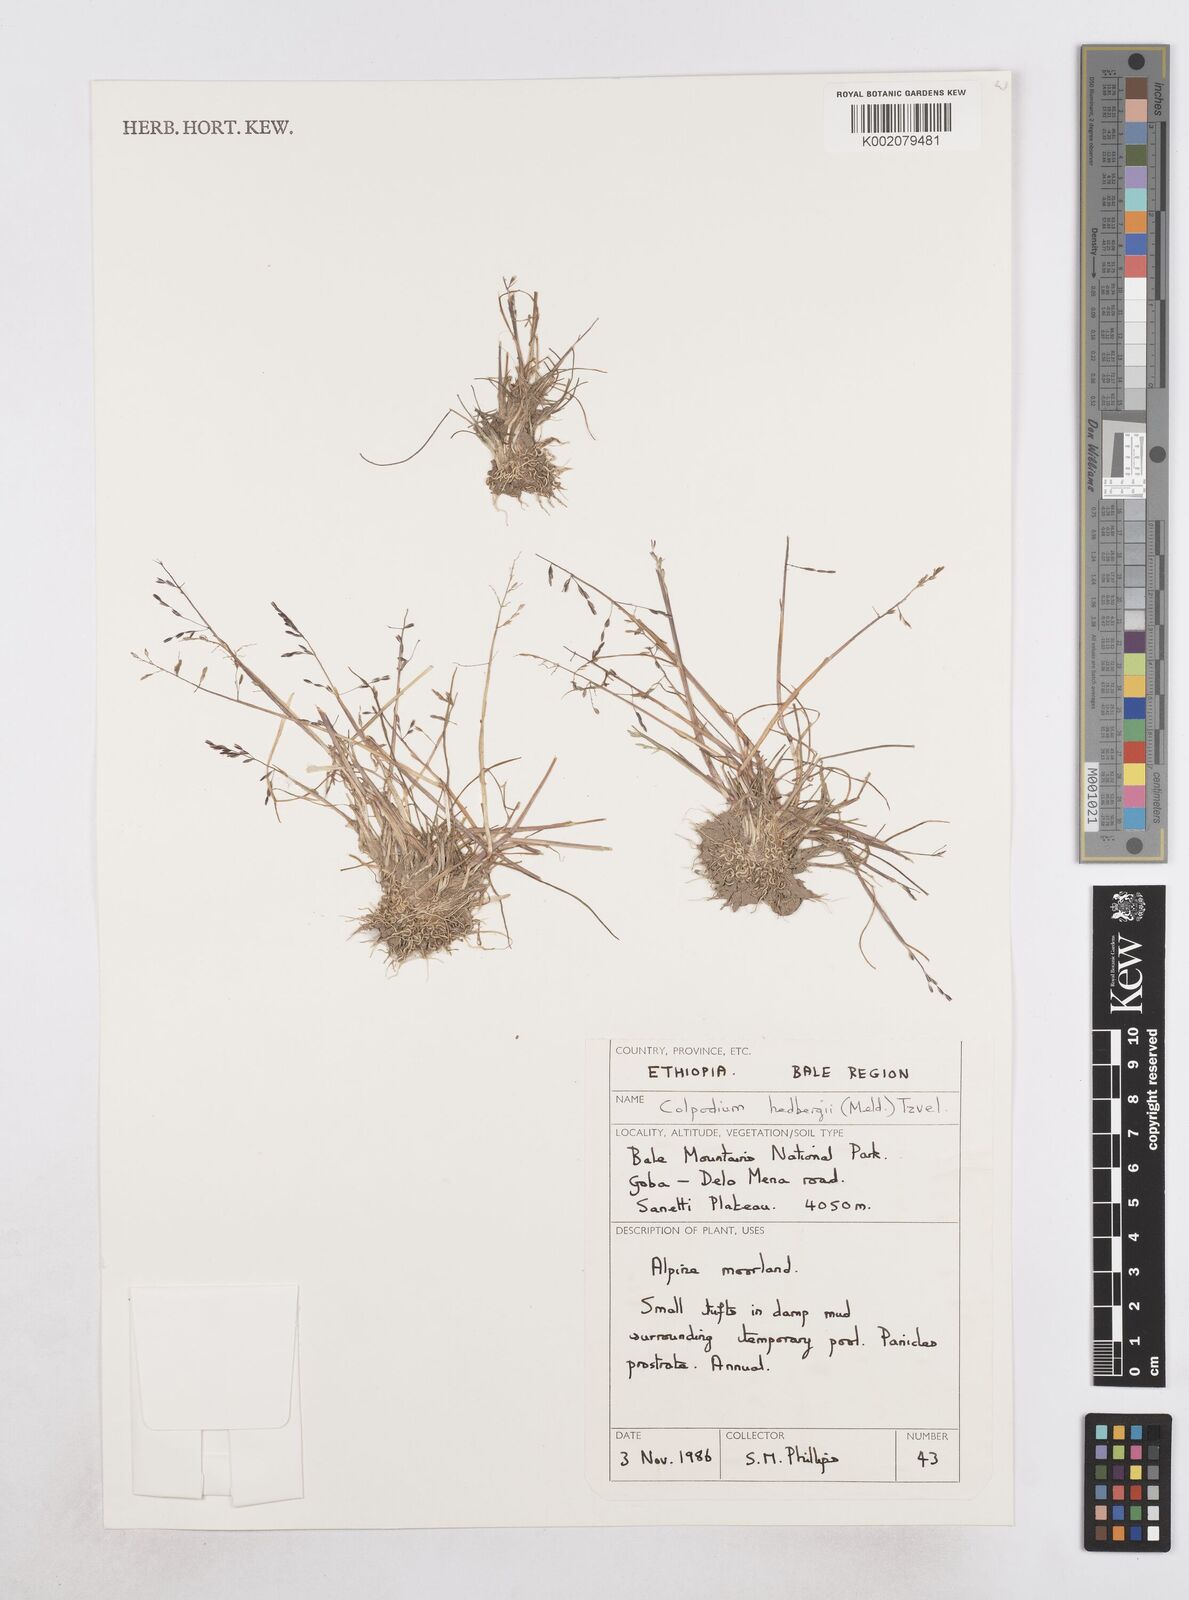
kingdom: Plantae
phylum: Tracheophyta
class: Liliopsida
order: Poales
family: Poaceae
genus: Colpodium
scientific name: Colpodium hedbergii
